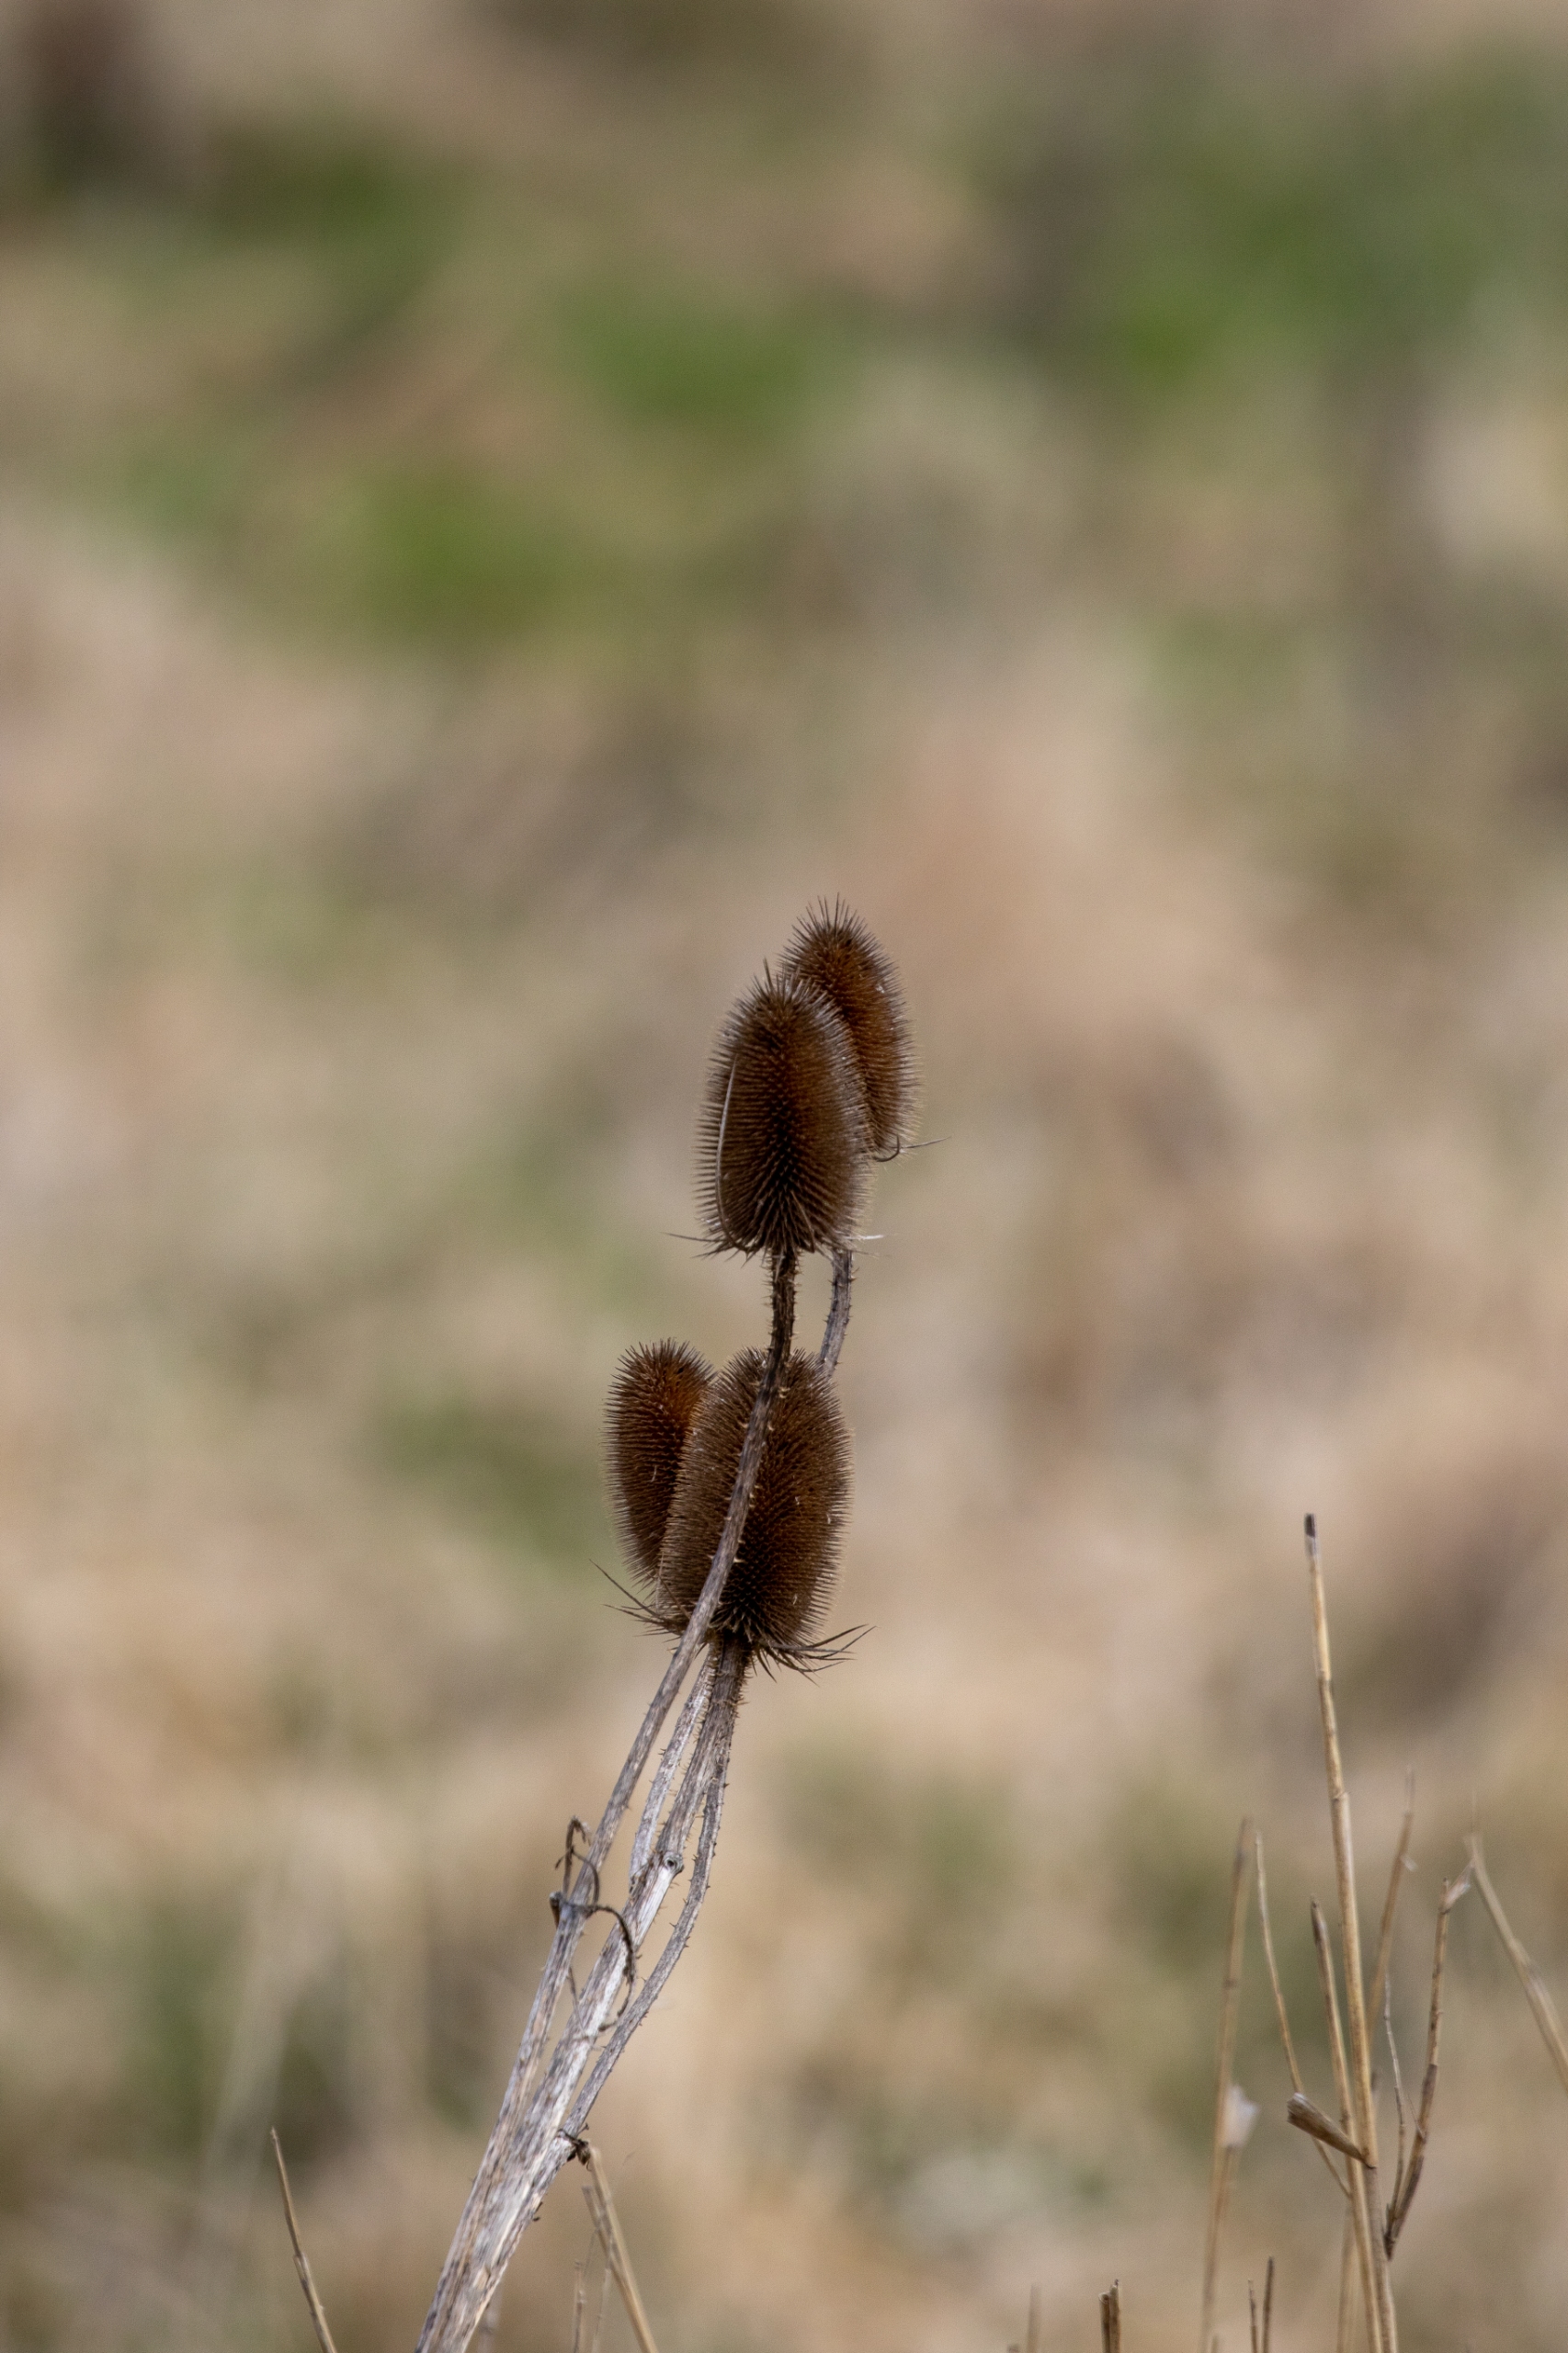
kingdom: Plantae
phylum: Tracheophyta
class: Magnoliopsida
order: Dipsacales
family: Caprifoliaceae
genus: Dipsacus
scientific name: Dipsacus fullonum
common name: Gærde-kartebolle
